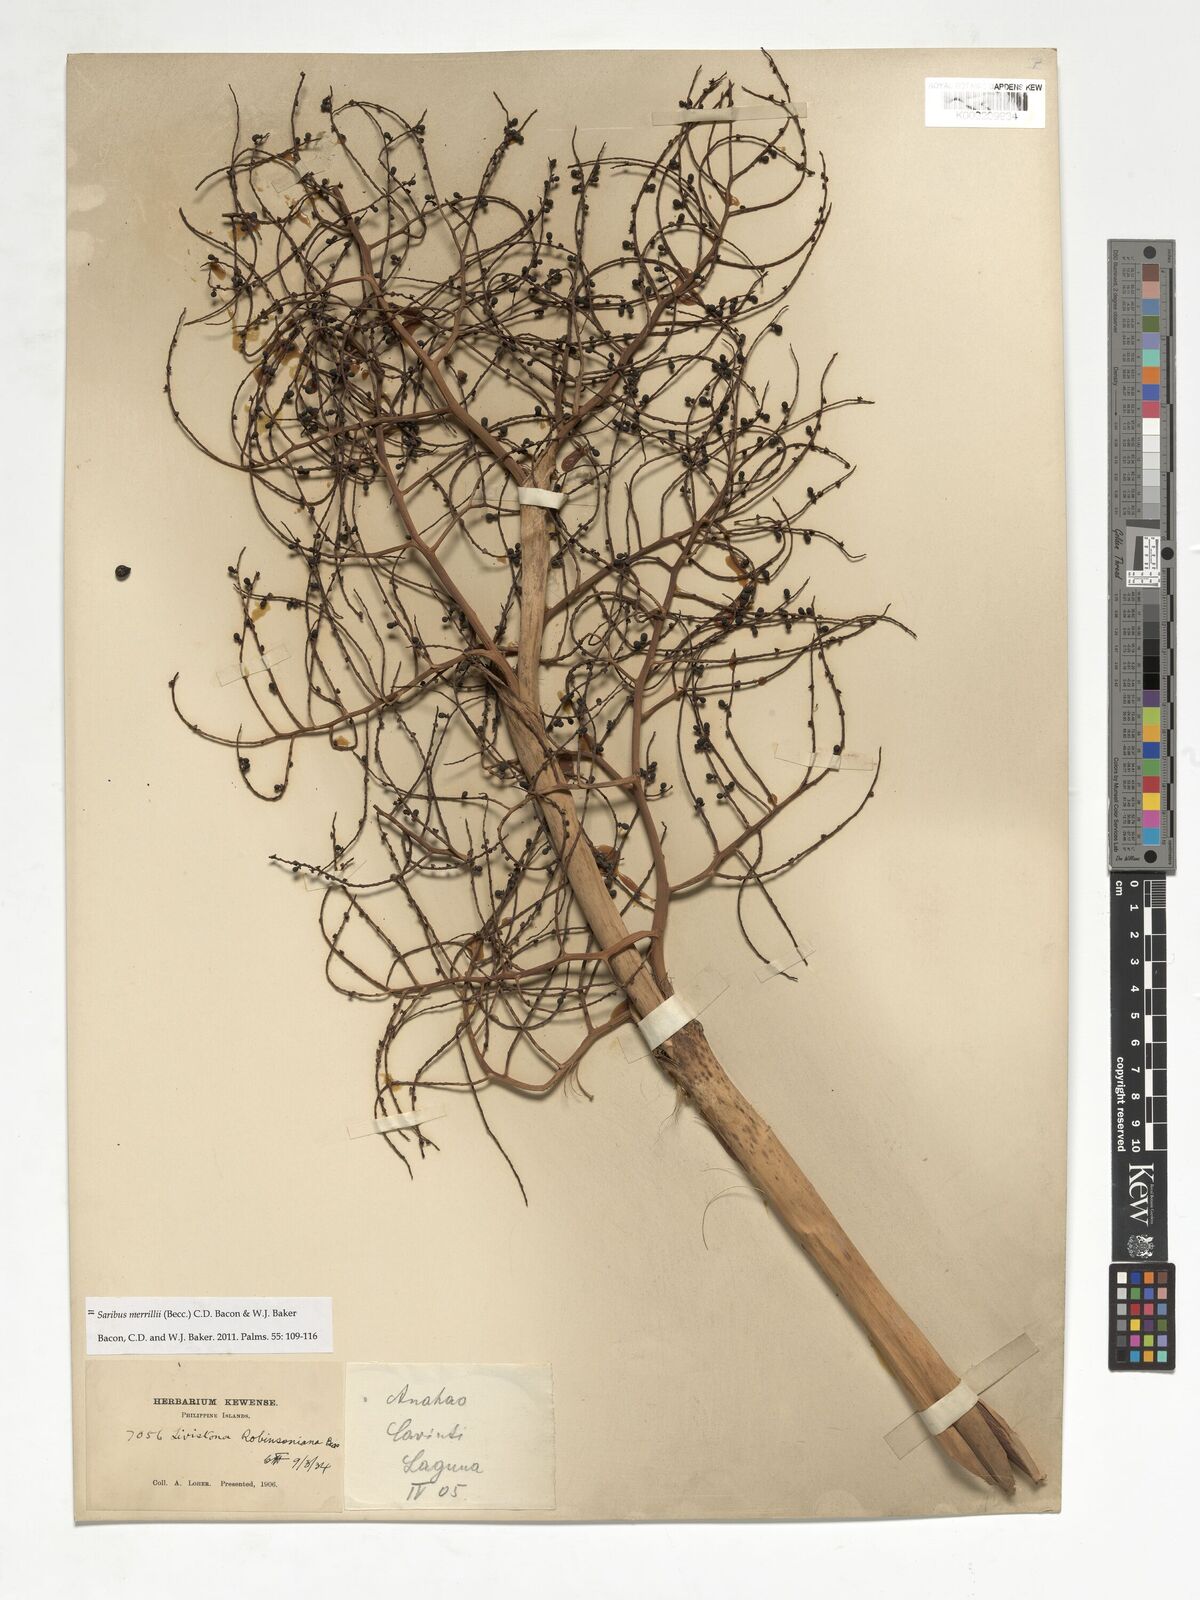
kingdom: Plantae
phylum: Tracheophyta
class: Liliopsida
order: Arecales
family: Arecaceae
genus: Saribus
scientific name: Saribus rotundifolius
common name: Palm
